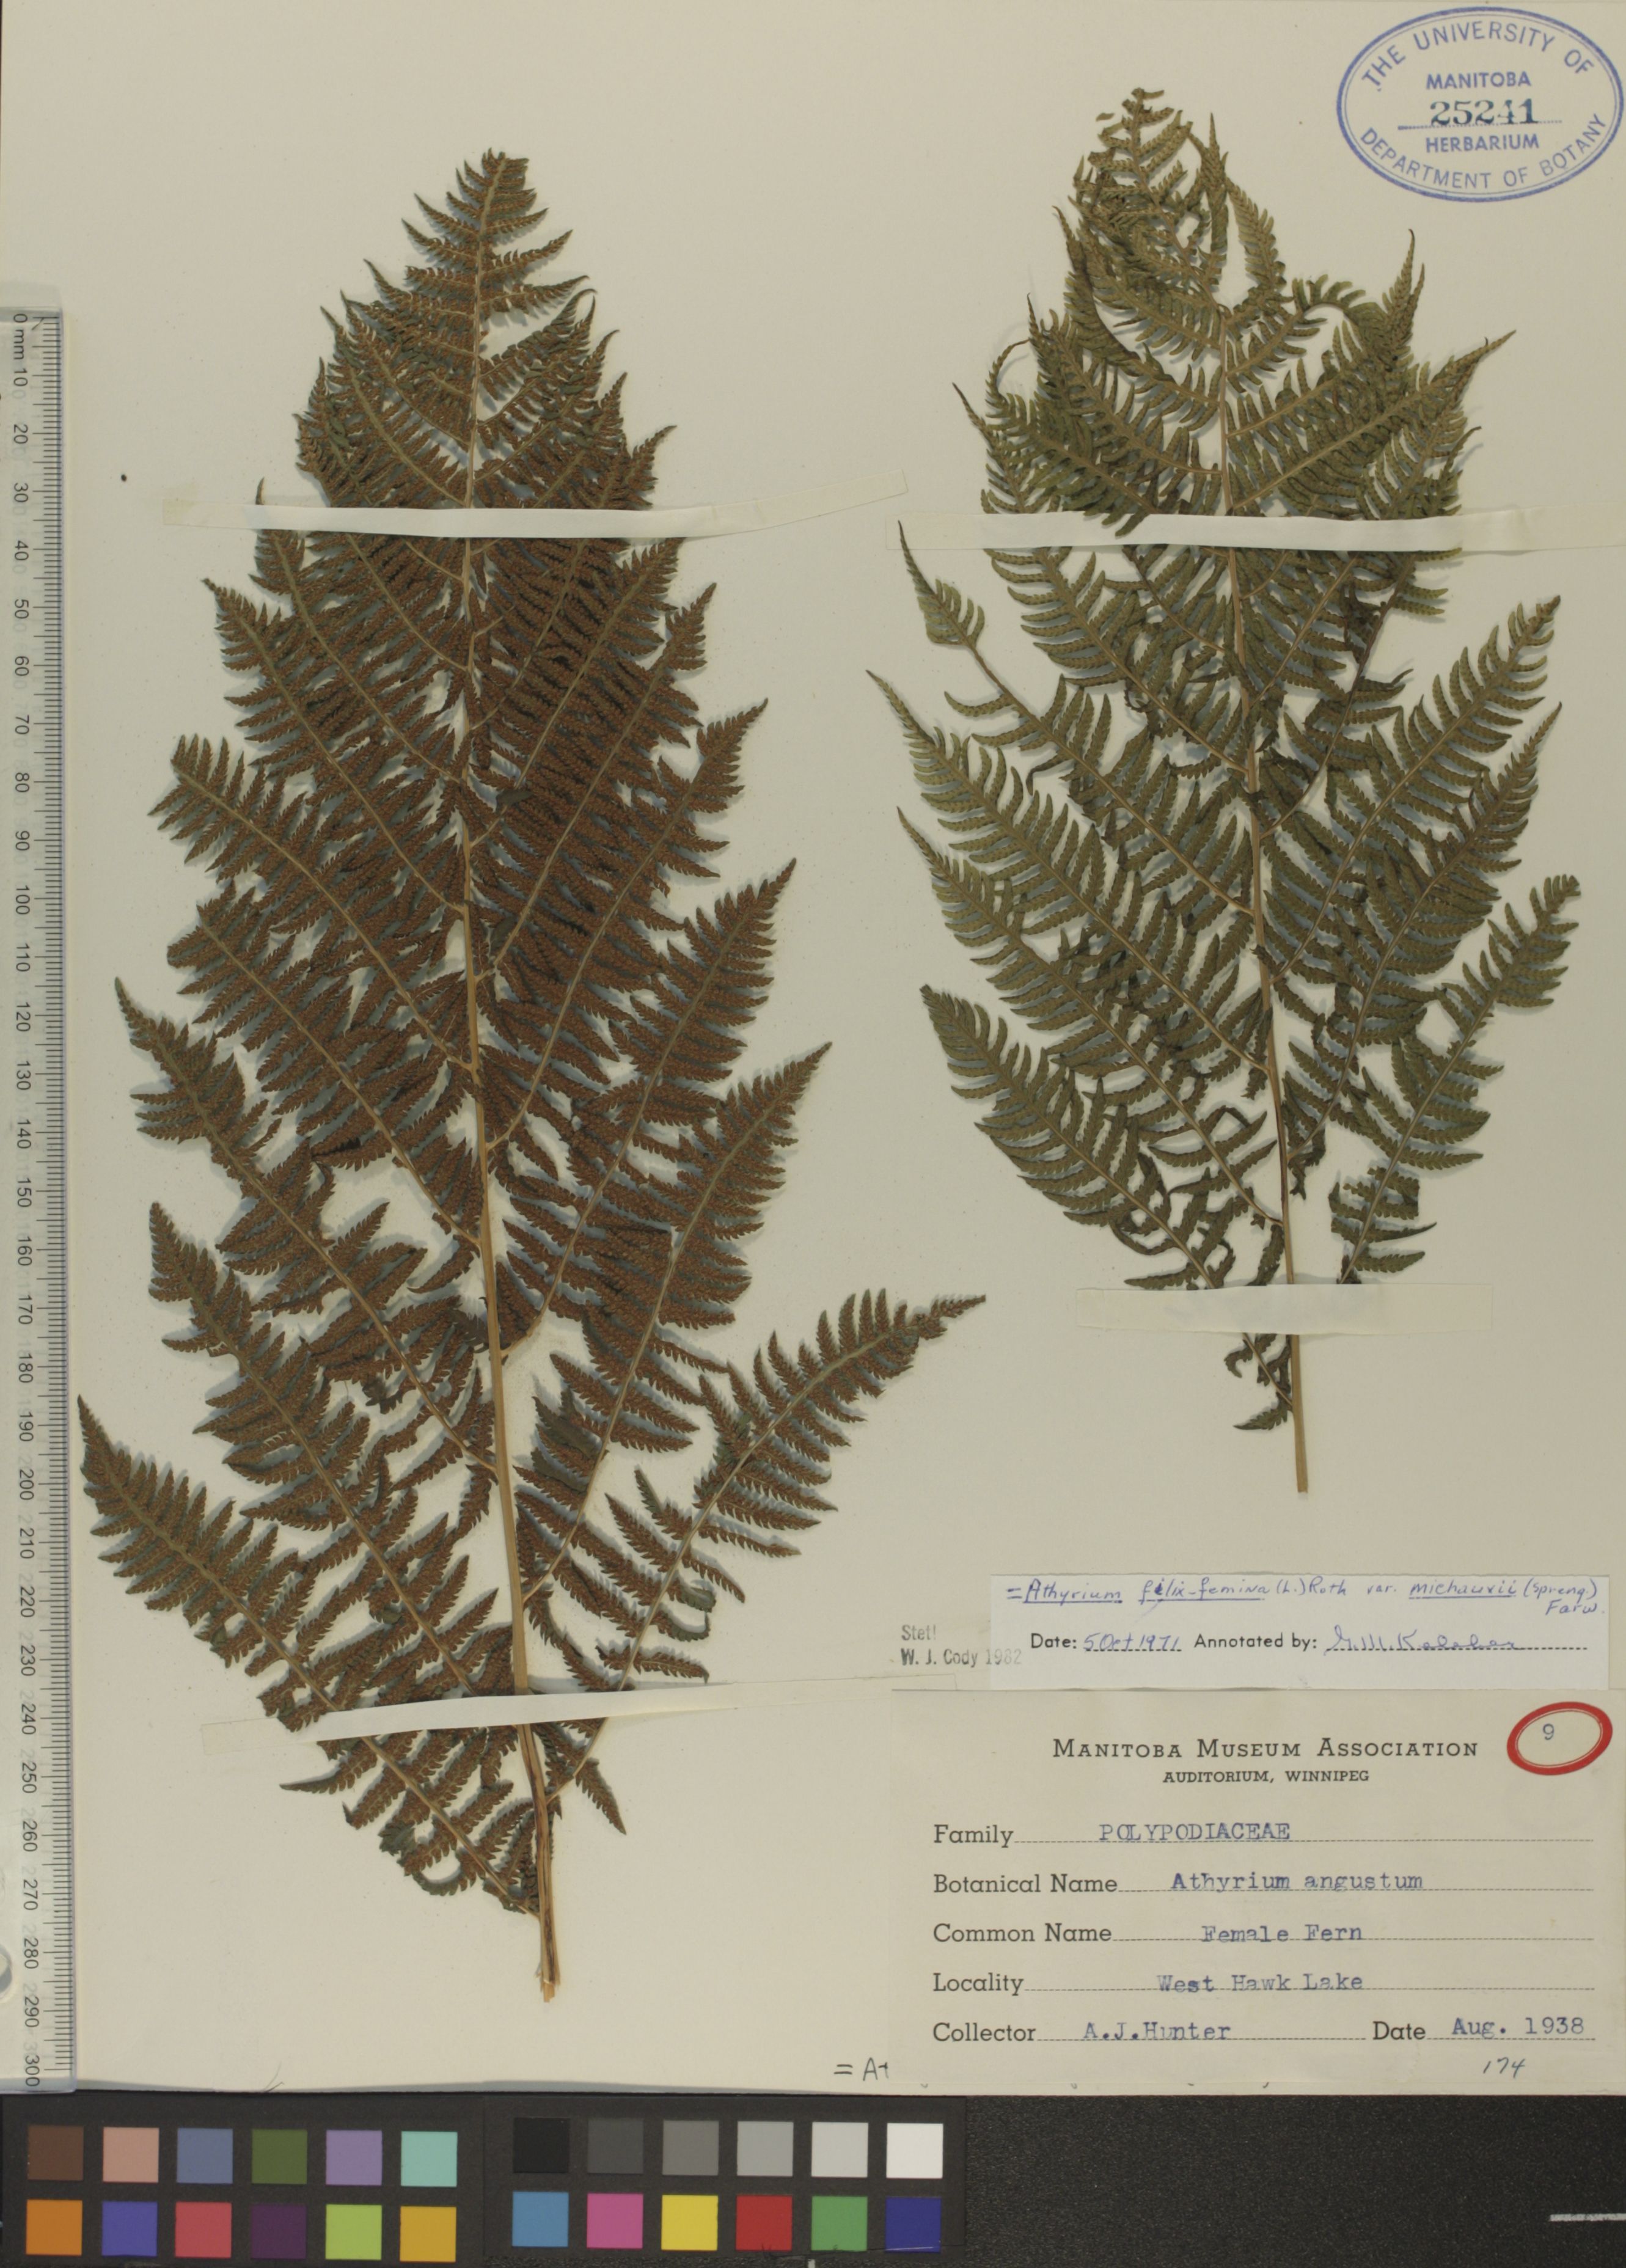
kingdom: Plantae
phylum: Tracheophyta
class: Polypodiopsida
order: Polypodiales
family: Athyriaceae
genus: Athyrium
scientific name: Athyrium angustum
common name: Northern lady fern
